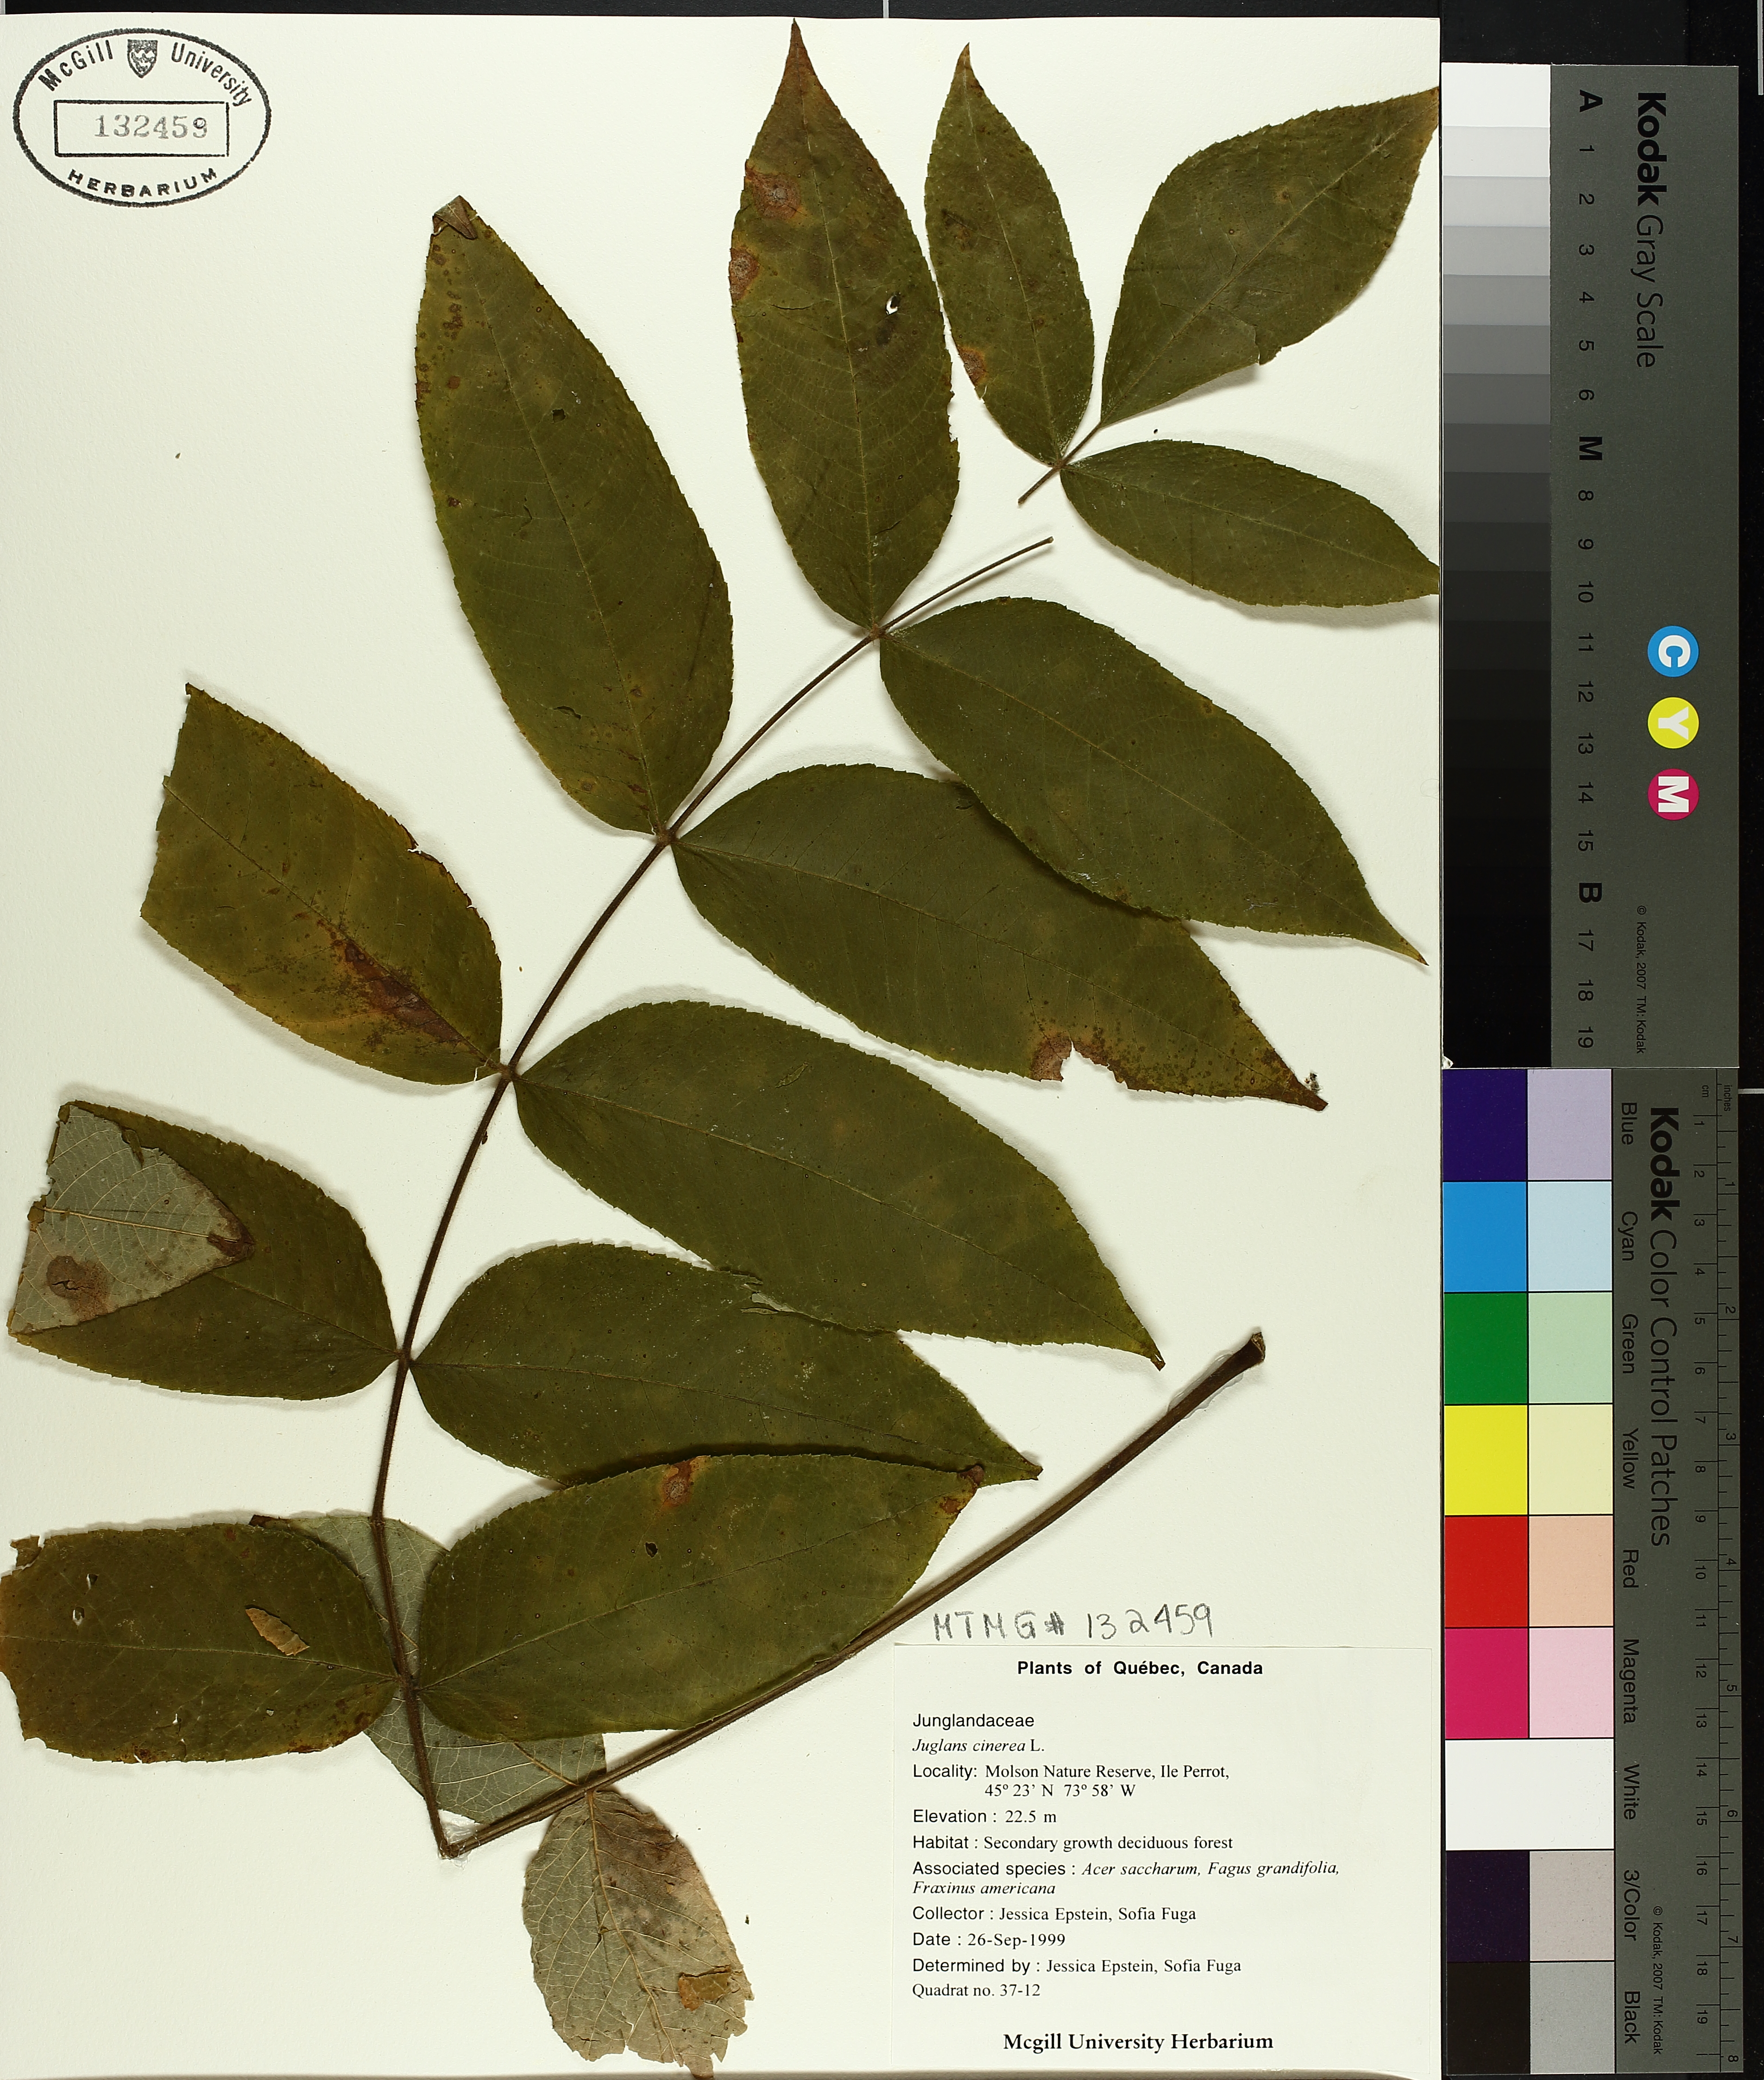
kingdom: Plantae
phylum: Tracheophyta
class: Magnoliopsida
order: Fagales
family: Juglandaceae
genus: Juglans
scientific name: Juglans cinerea
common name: Butternut
